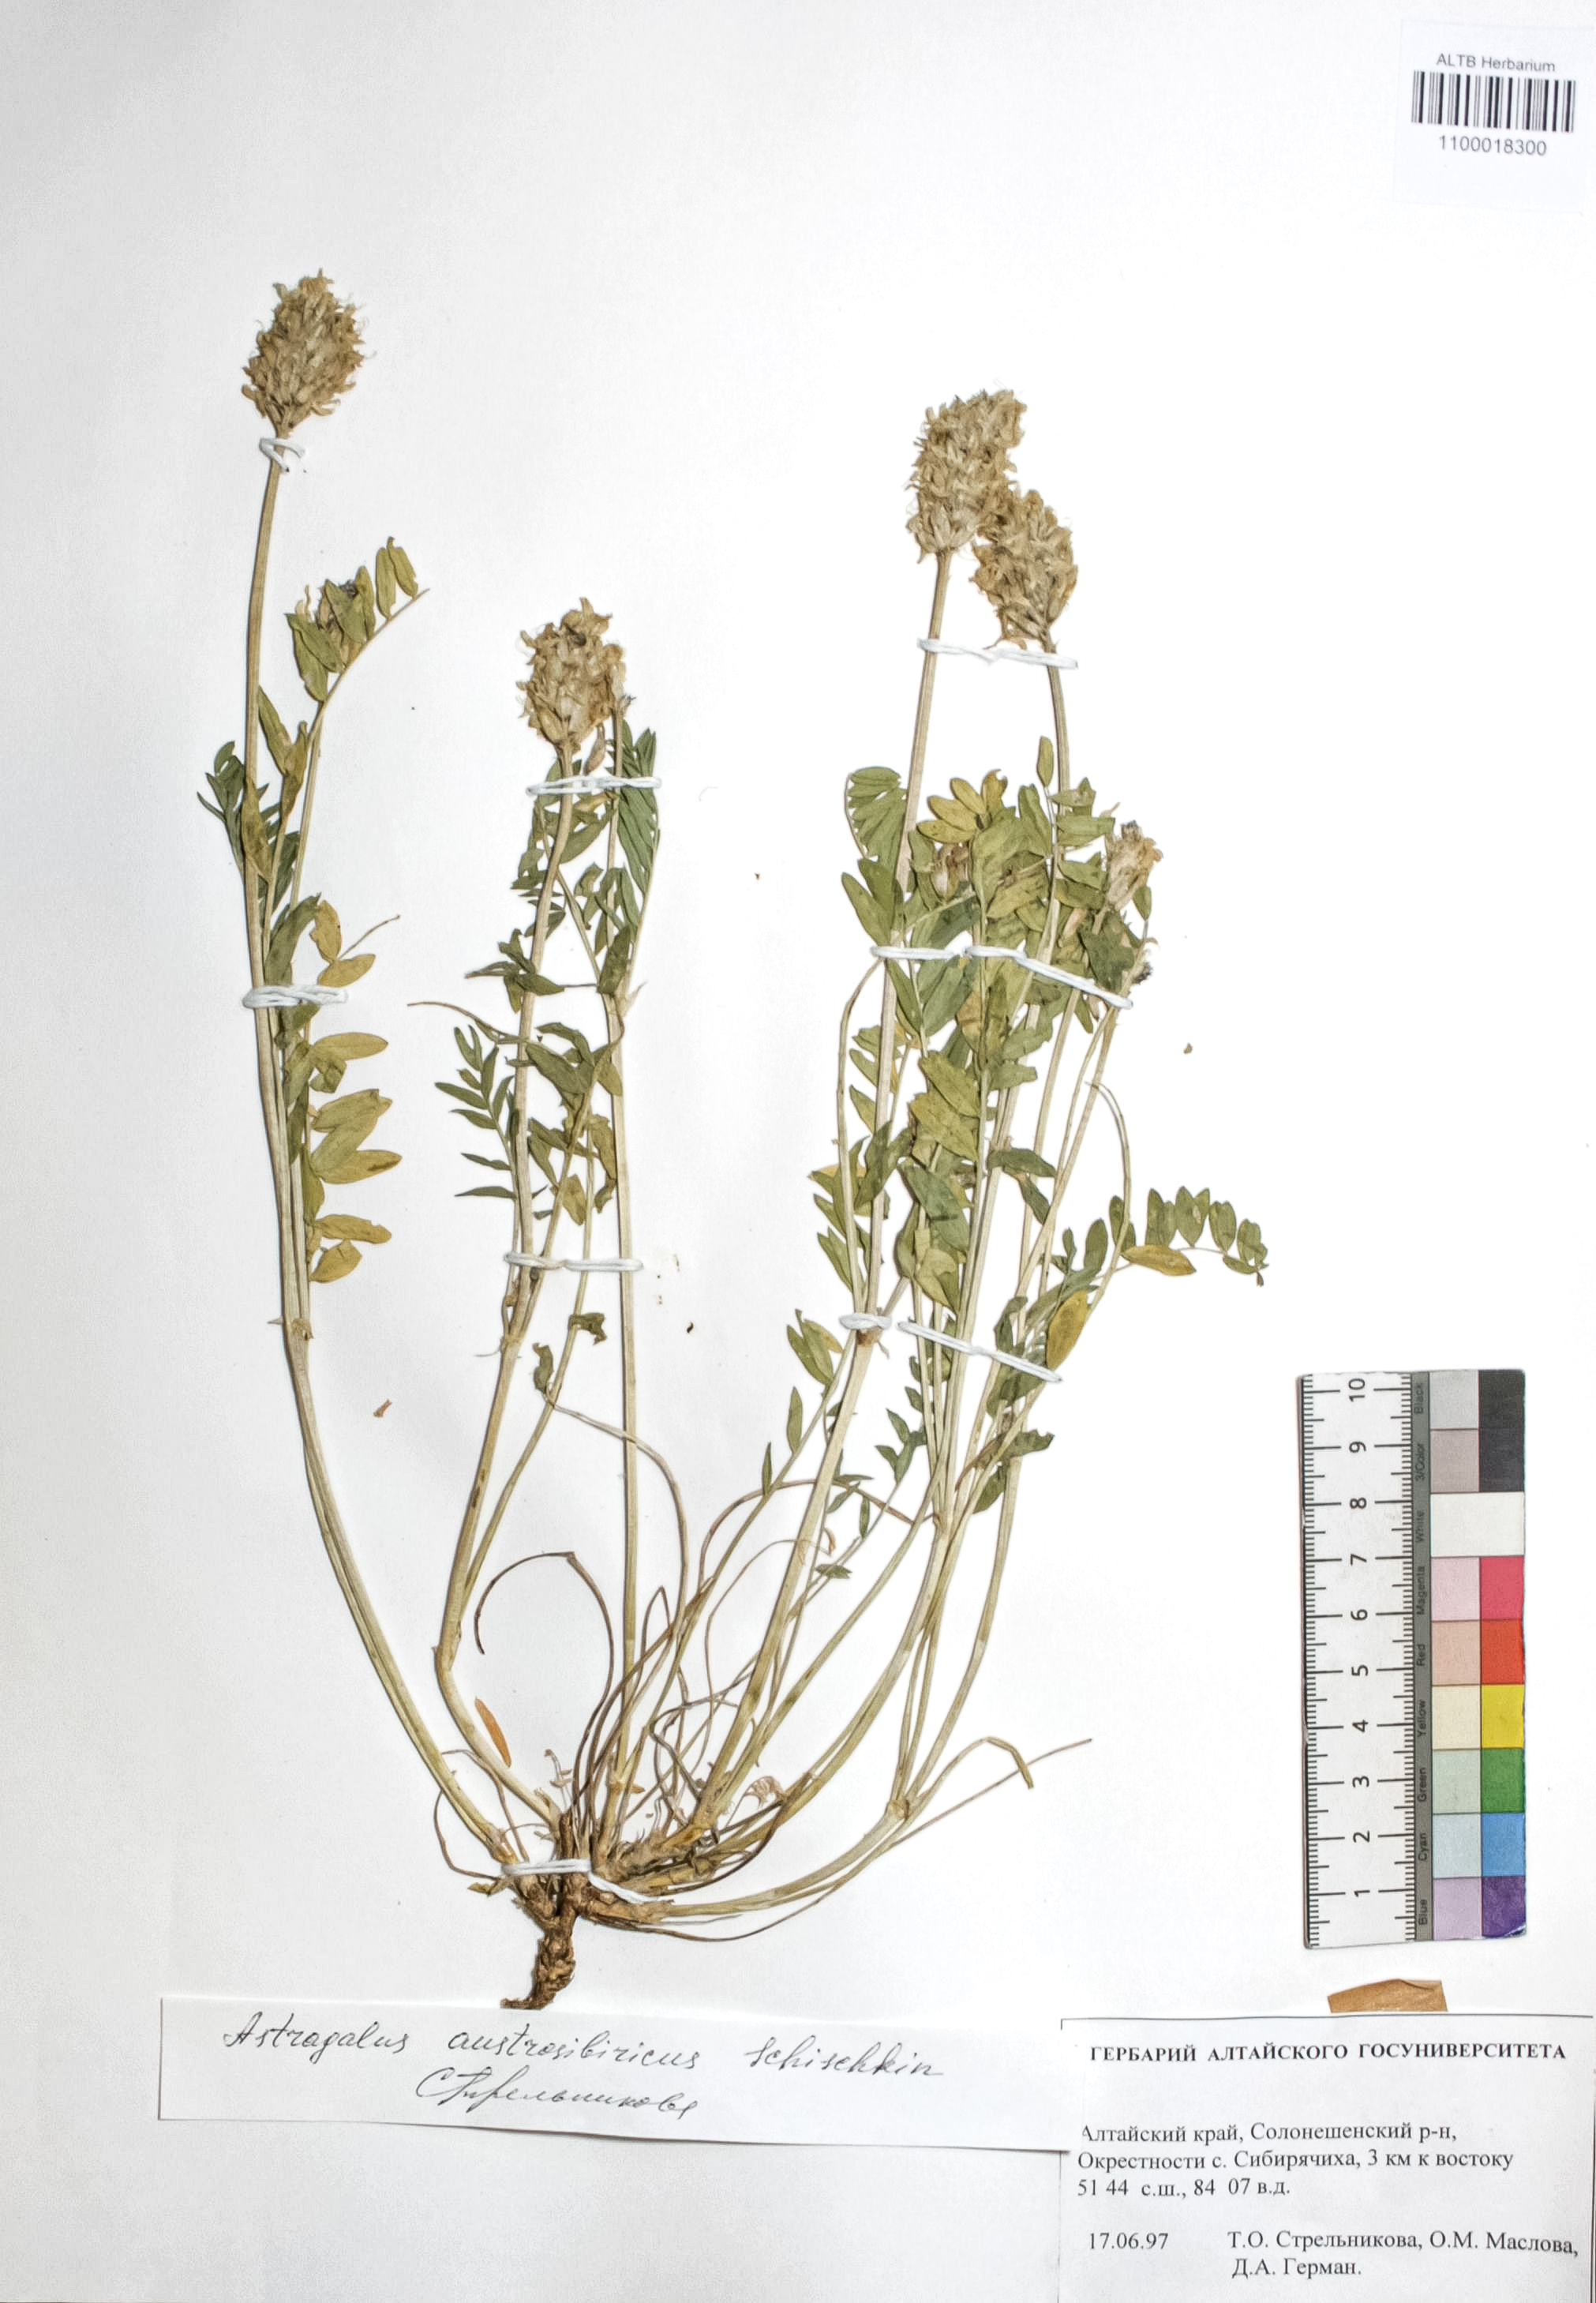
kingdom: Plantae
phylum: Tracheophyta
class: Magnoliopsida
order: Fabales
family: Fabaceae
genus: Astragalus
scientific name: Astragalus laxmannii
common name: Laxmann's milk-vetch
